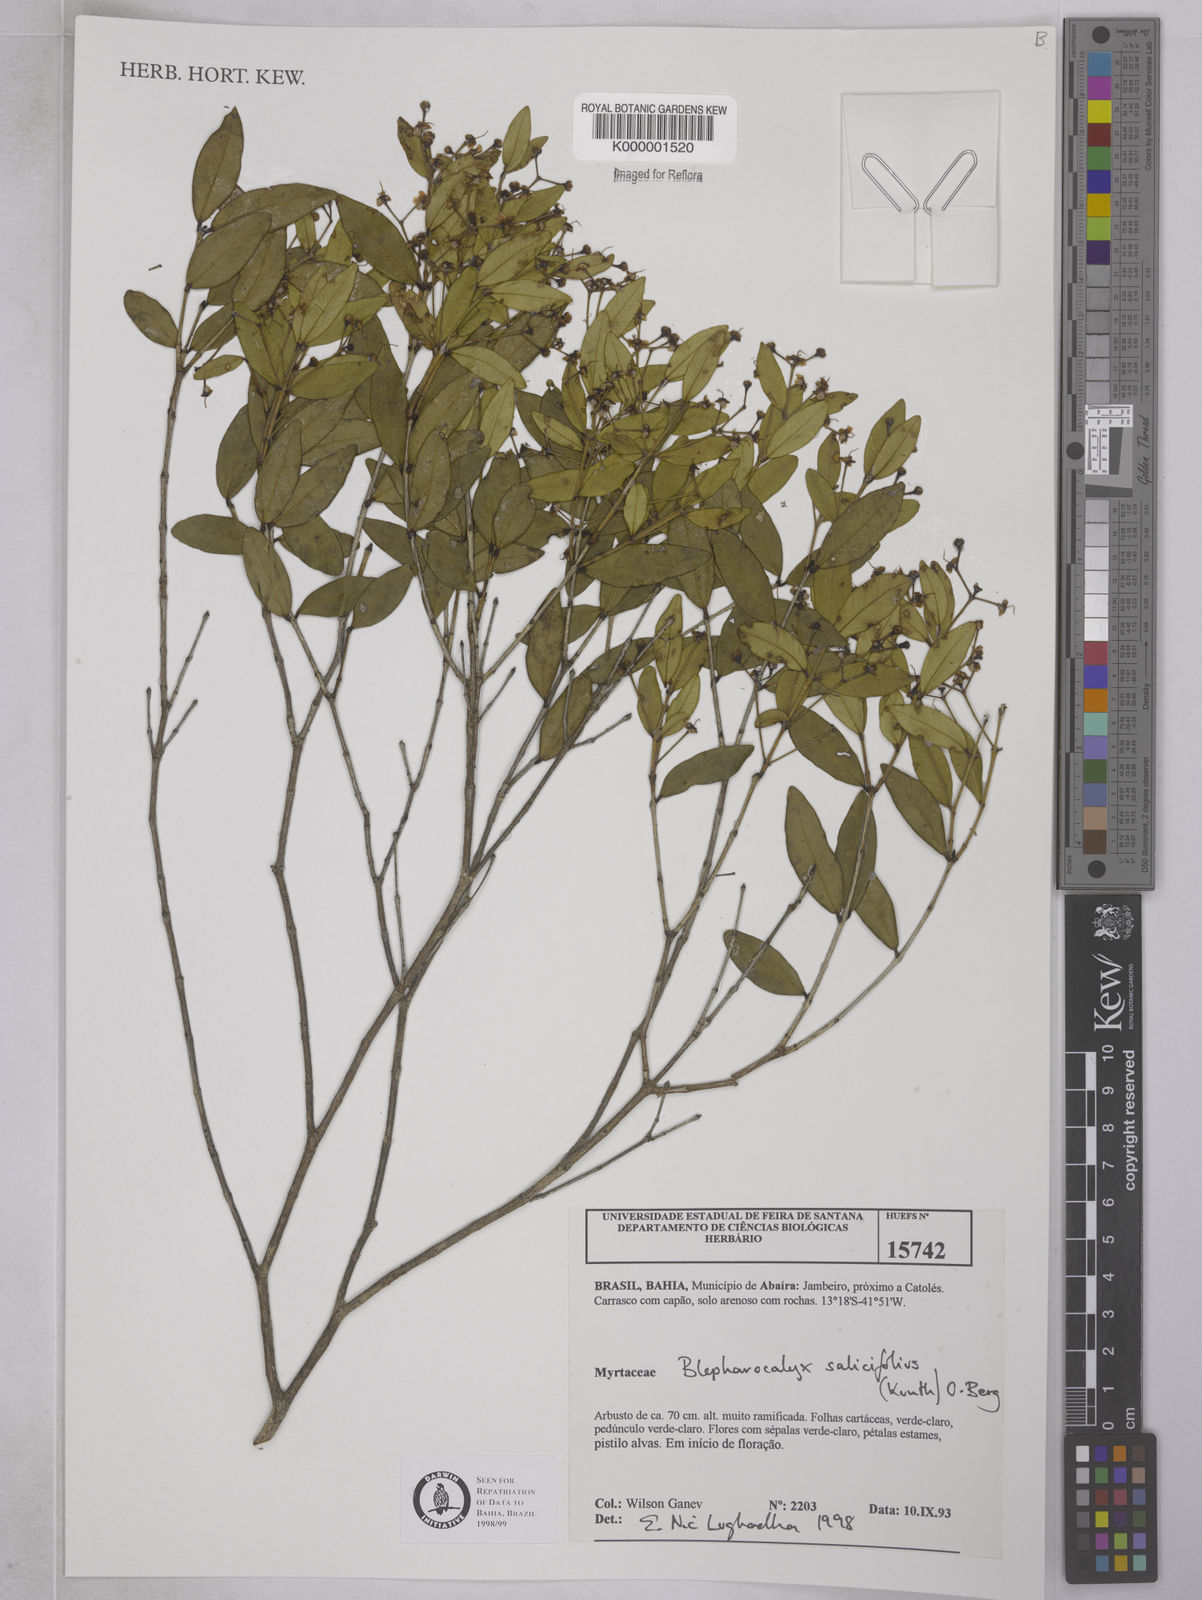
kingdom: Plantae
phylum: Tracheophyta
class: Magnoliopsida
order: Myrtales
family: Myrtaceae
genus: Blepharocalyx
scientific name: Blepharocalyx salicifolius
